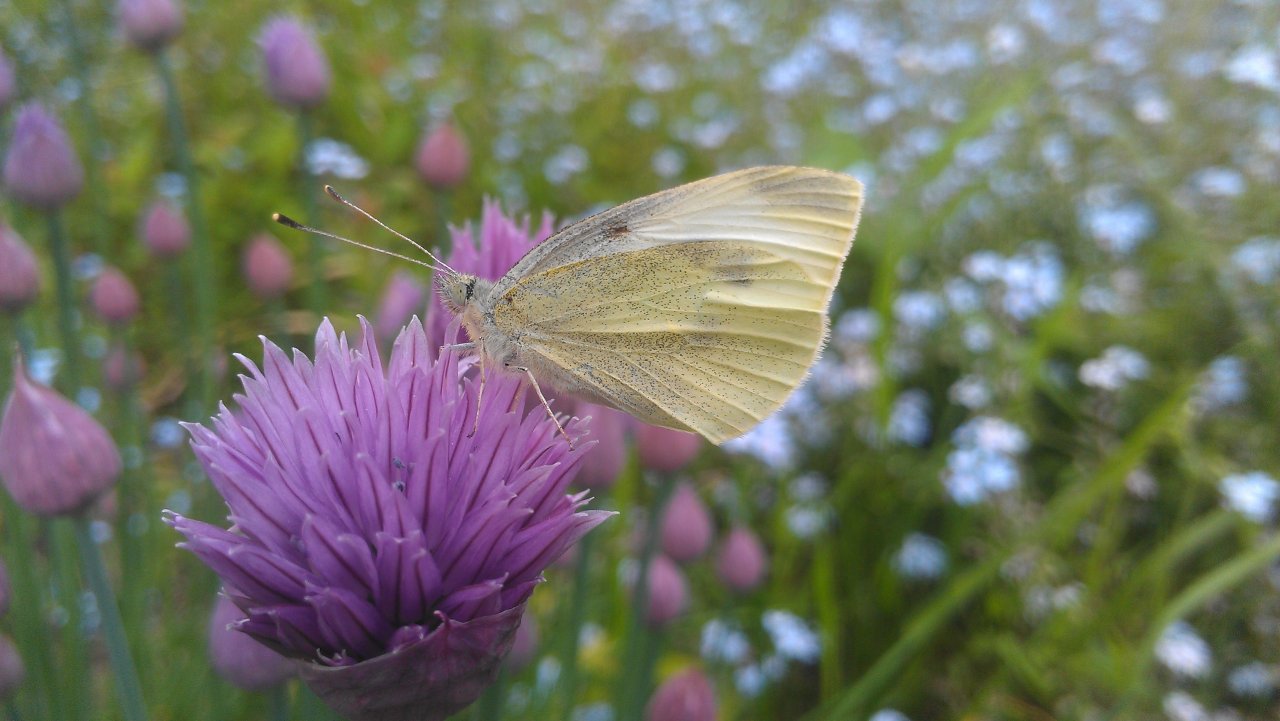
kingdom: Animalia
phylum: Arthropoda
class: Insecta
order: Lepidoptera
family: Pieridae
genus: Pieris
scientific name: Pieris rapae
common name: Cabbage White
